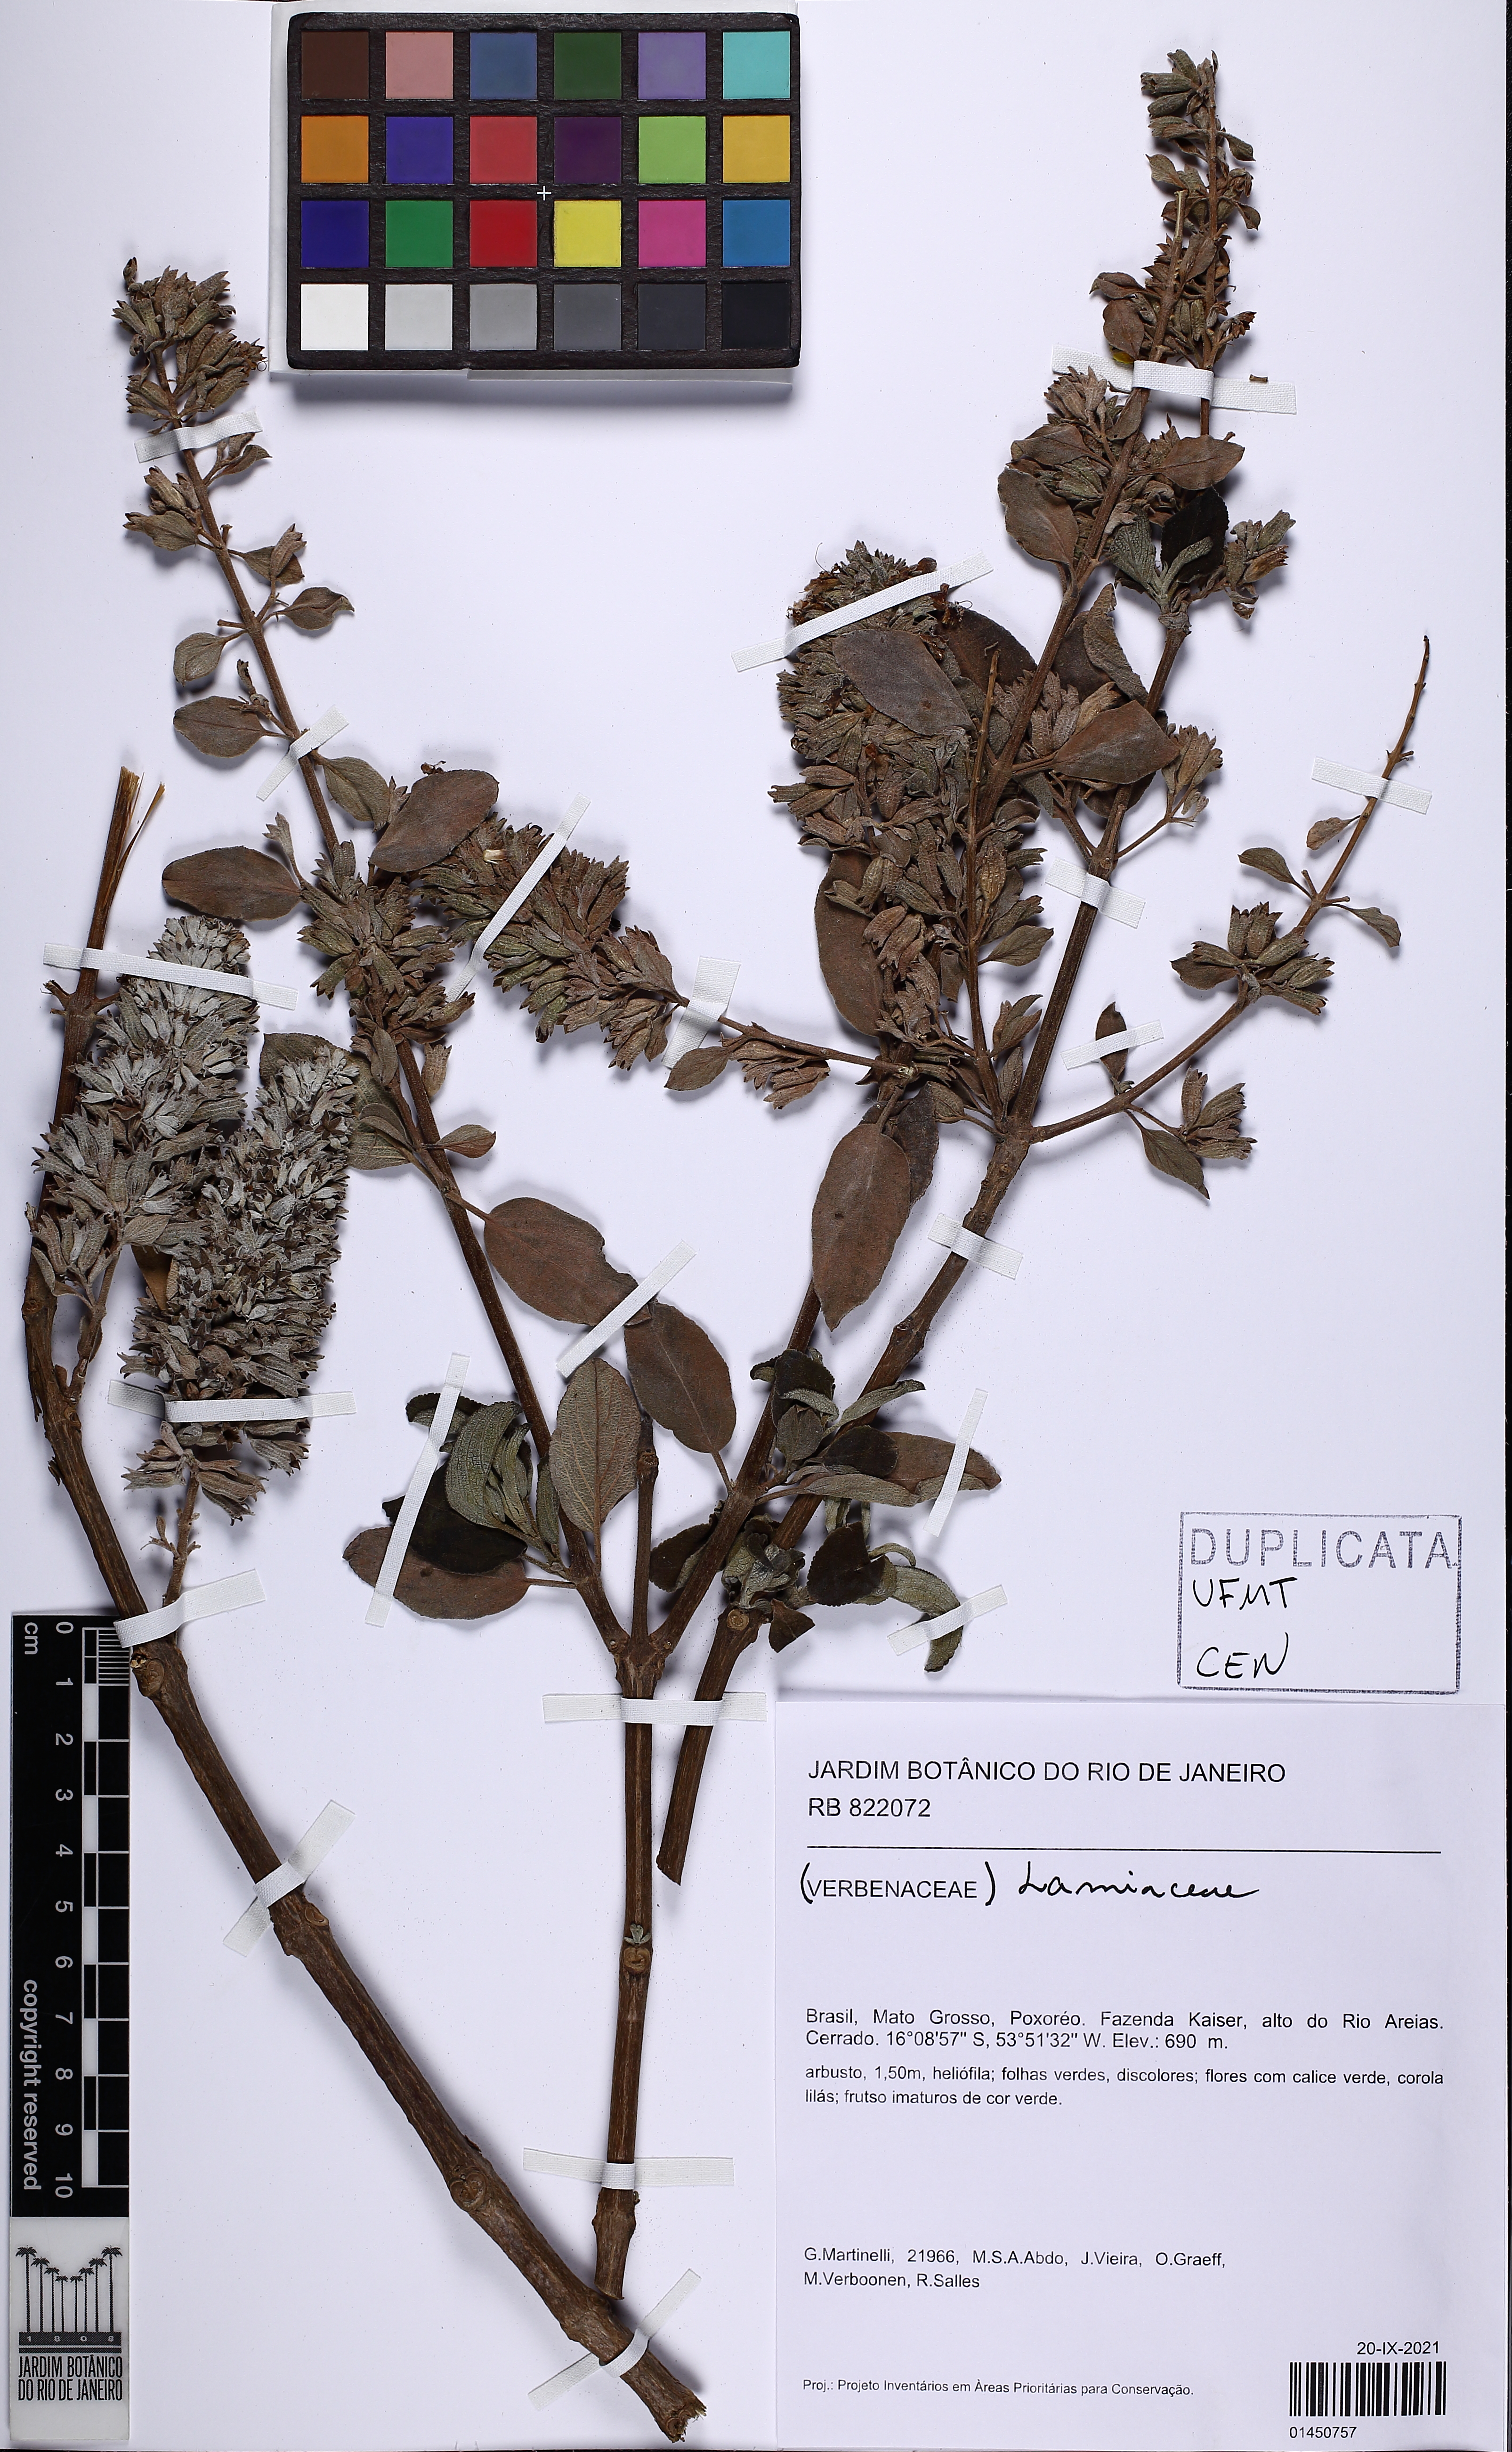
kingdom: Plantae
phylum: Tracheophyta
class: Magnoliopsida
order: Lamiales
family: Lamiaceae
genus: Hyptidendron
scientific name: Hyptidendron conspersum
